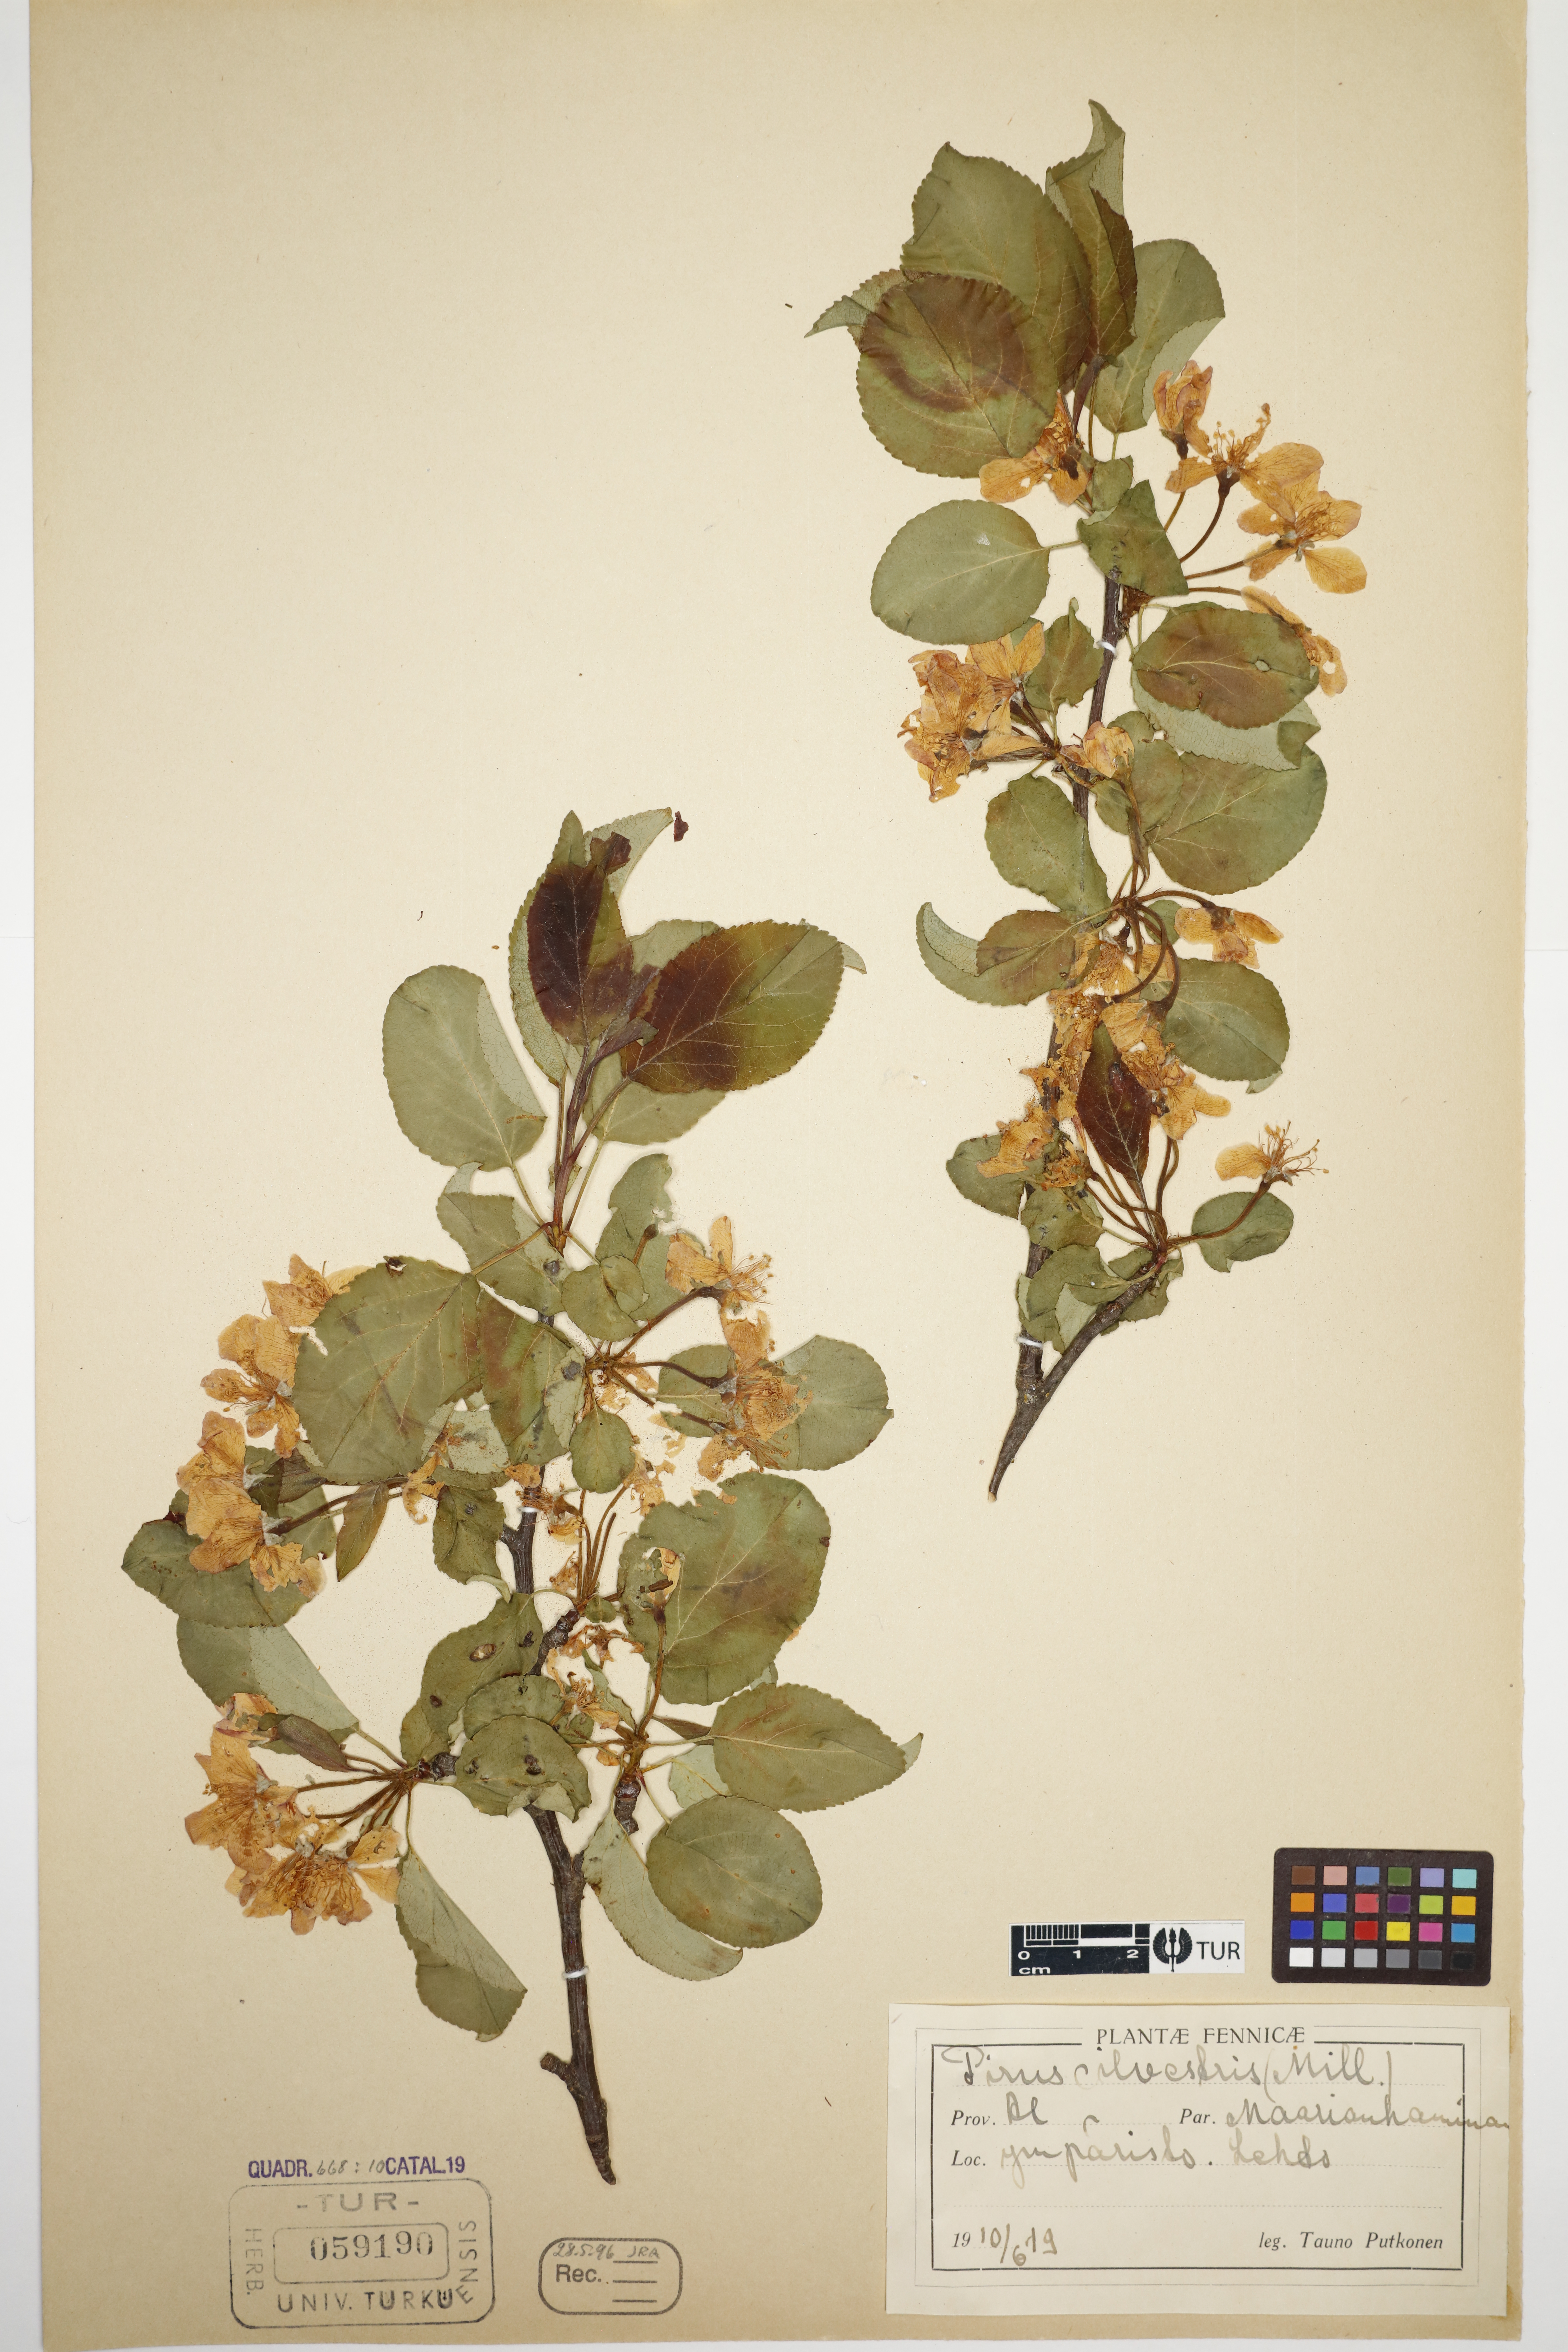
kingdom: Plantae
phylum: Tracheophyta
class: Magnoliopsida
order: Rosales
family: Rosaceae
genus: Malus
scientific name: Malus sylvestris
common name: Crab apple
